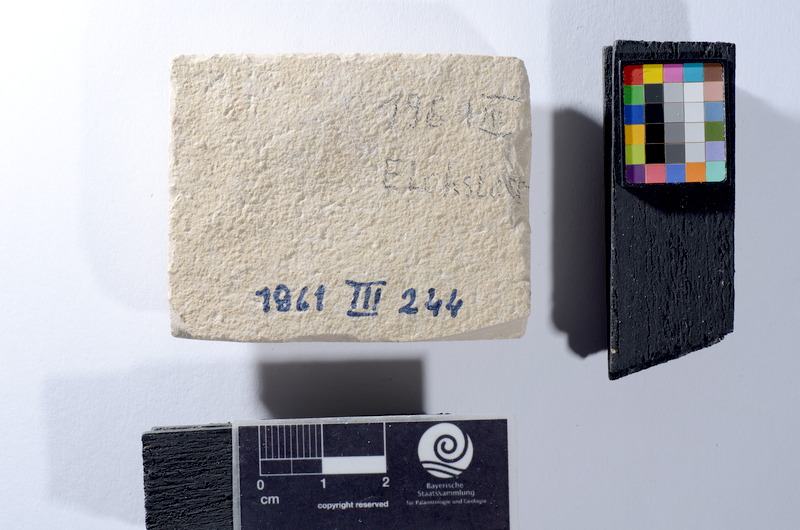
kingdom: Animalia
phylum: Chordata
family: Ascalaboidae
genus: Tharsis
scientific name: Tharsis dubius
